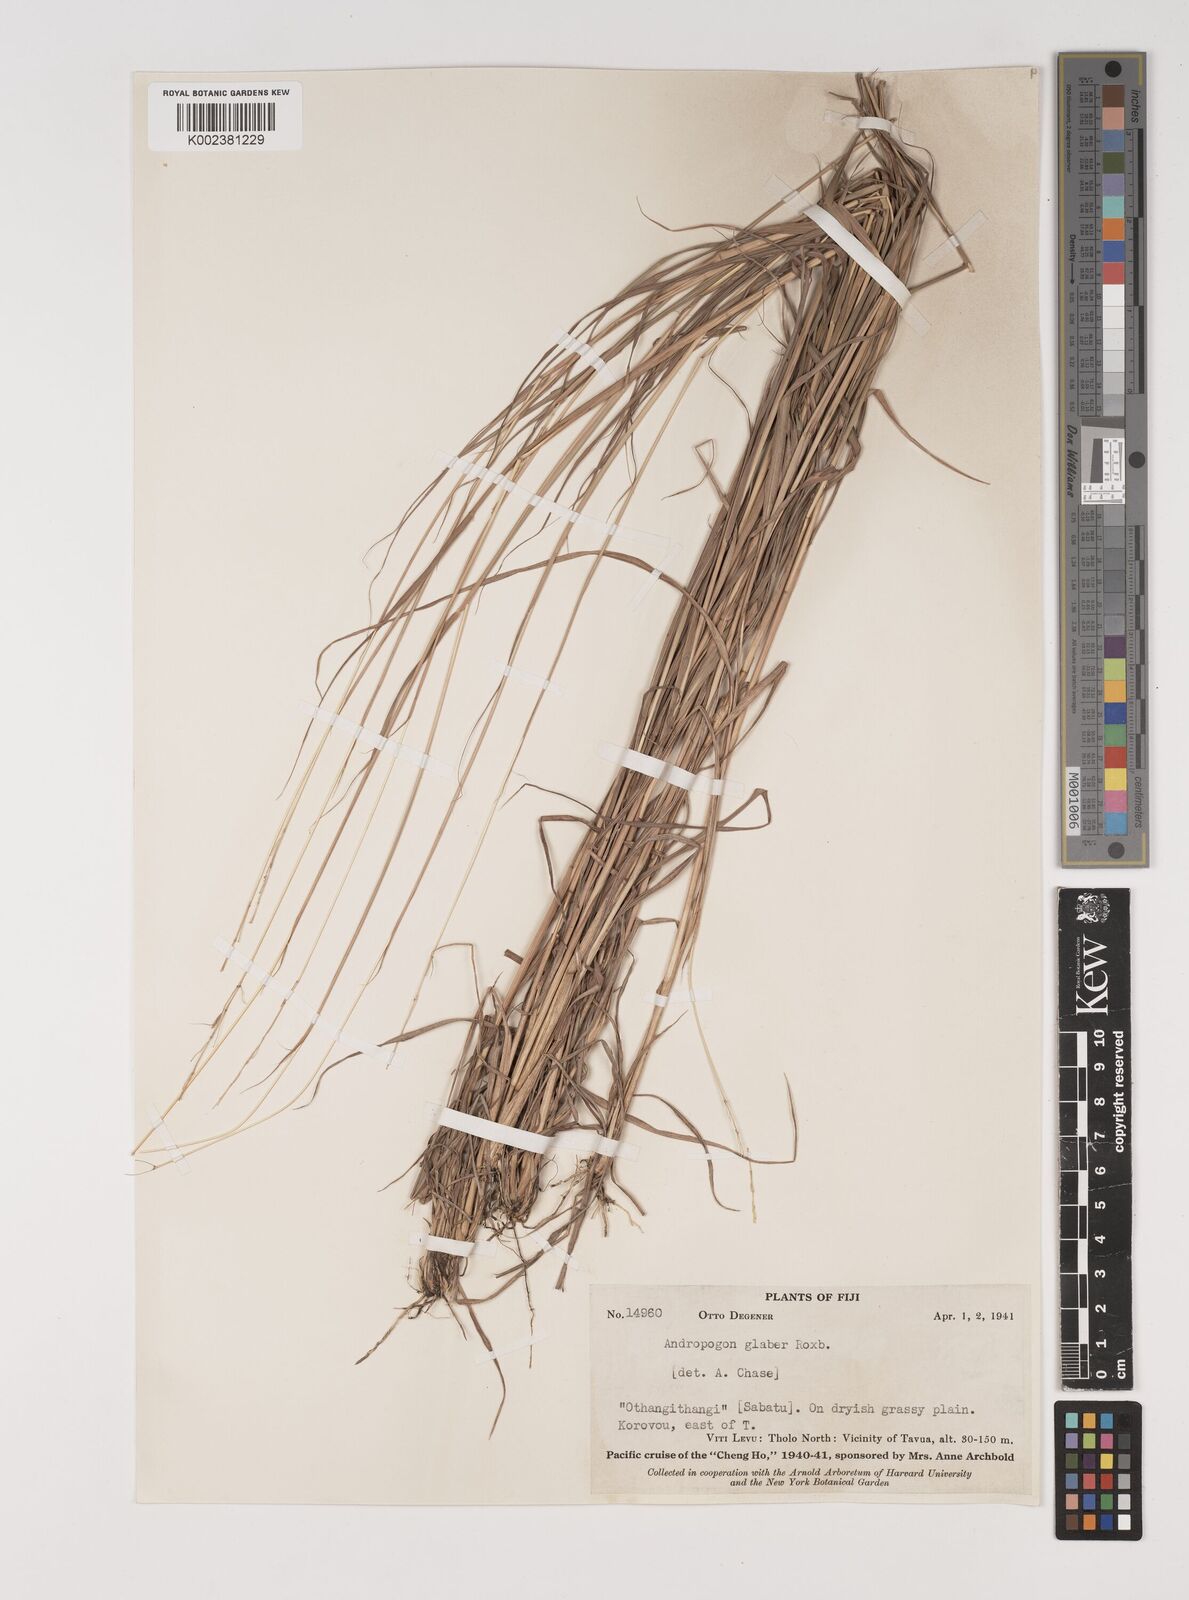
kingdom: Plantae
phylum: Tracheophyta
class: Liliopsida
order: Poales
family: Poaceae
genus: Bothriochloa
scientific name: Bothriochloa bladhii
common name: Caucasian bluestem
